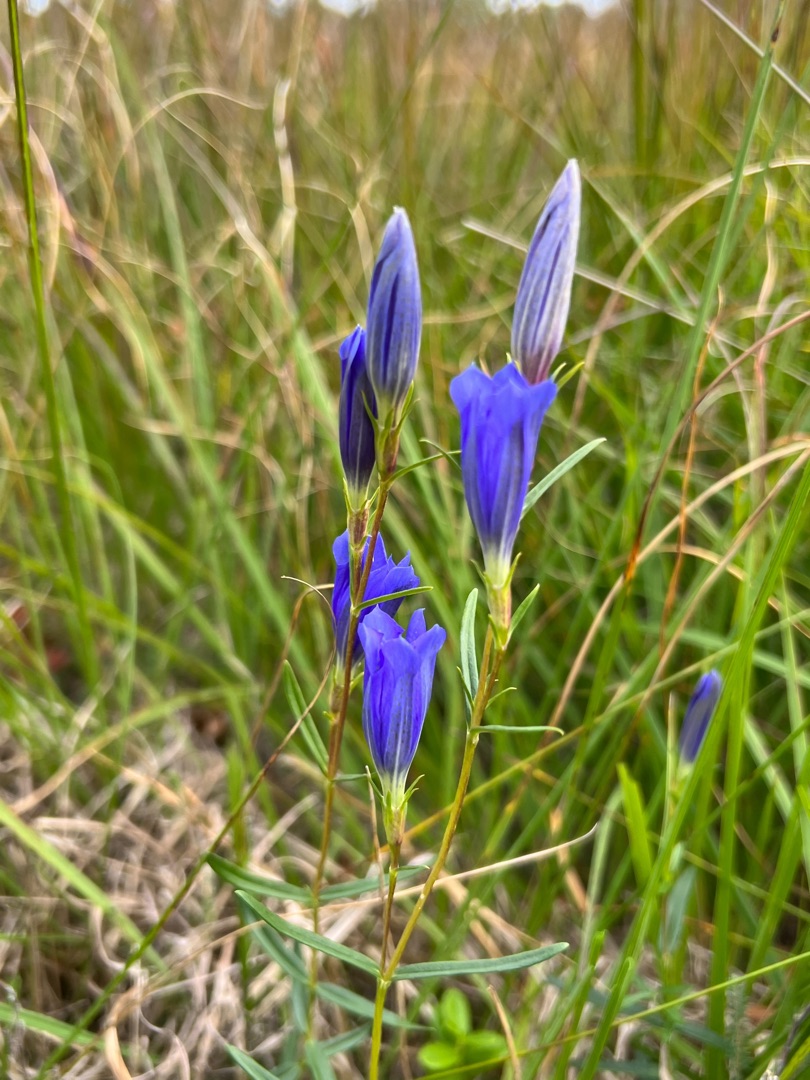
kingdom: Plantae
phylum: Tracheophyta
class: Magnoliopsida
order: Gentianales
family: Gentianaceae
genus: Gentiana
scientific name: Gentiana pneumonanthe
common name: Klokke-ensian
